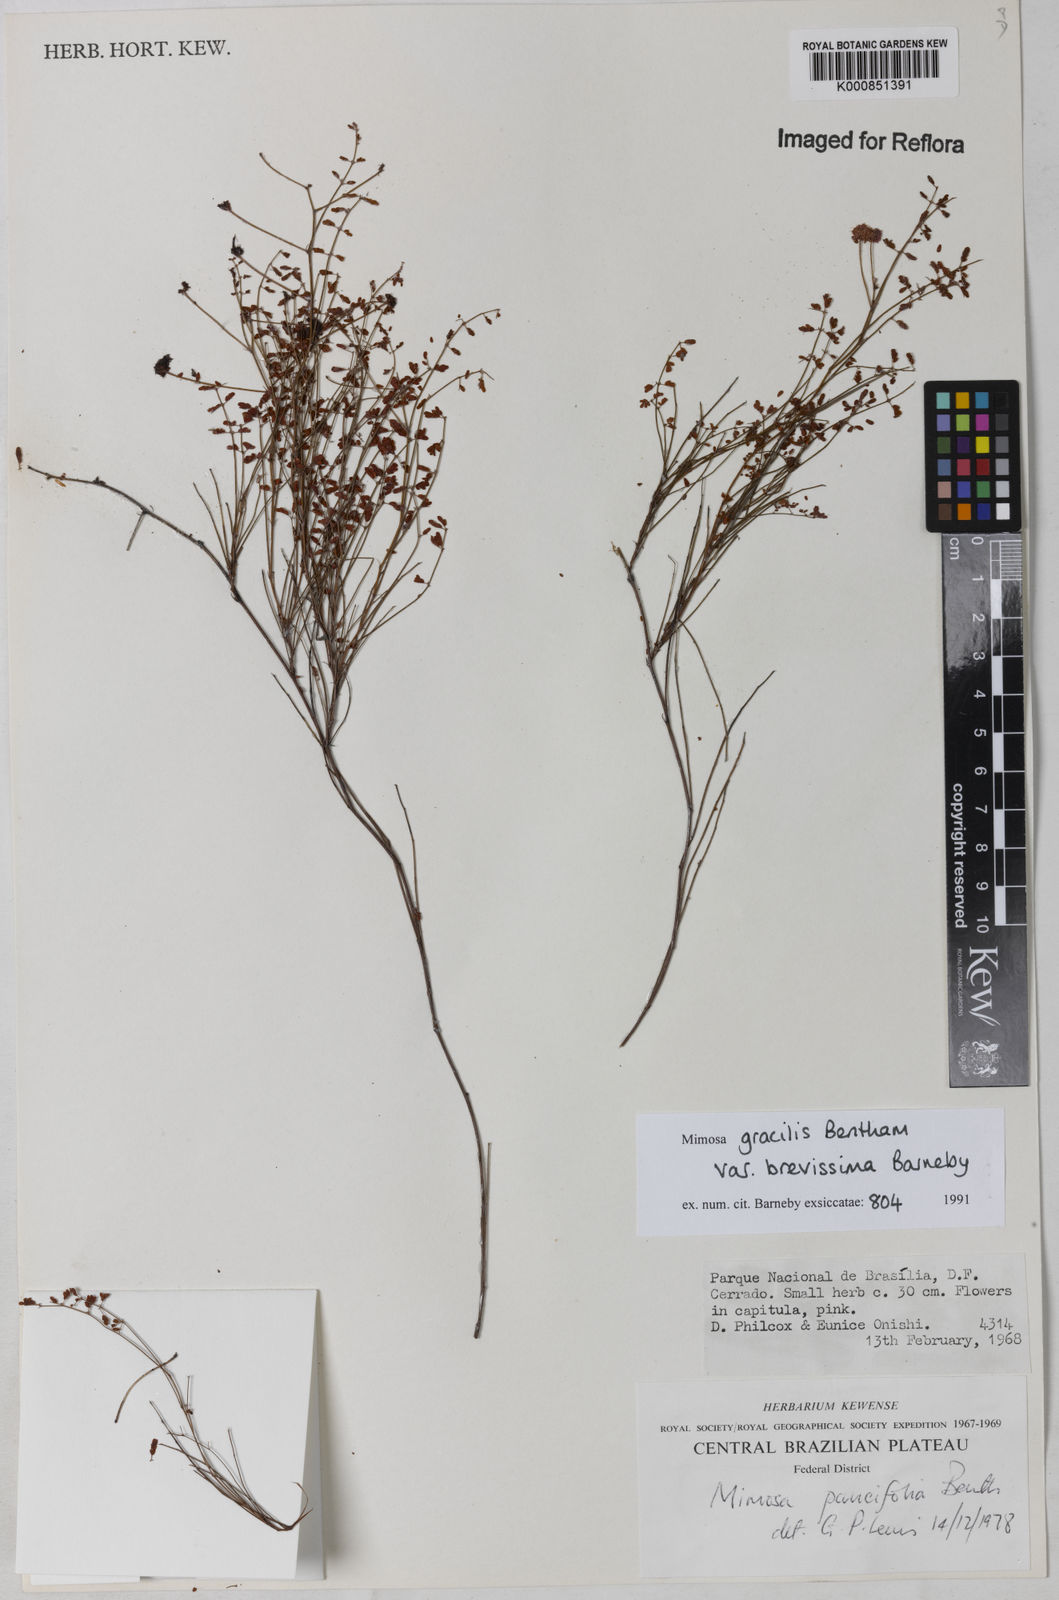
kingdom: Plantae
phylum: Tracheophyta
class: Magnoliopsida
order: Fabales
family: Fabaceae
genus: Mimosa
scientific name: Mimosa gracilis
